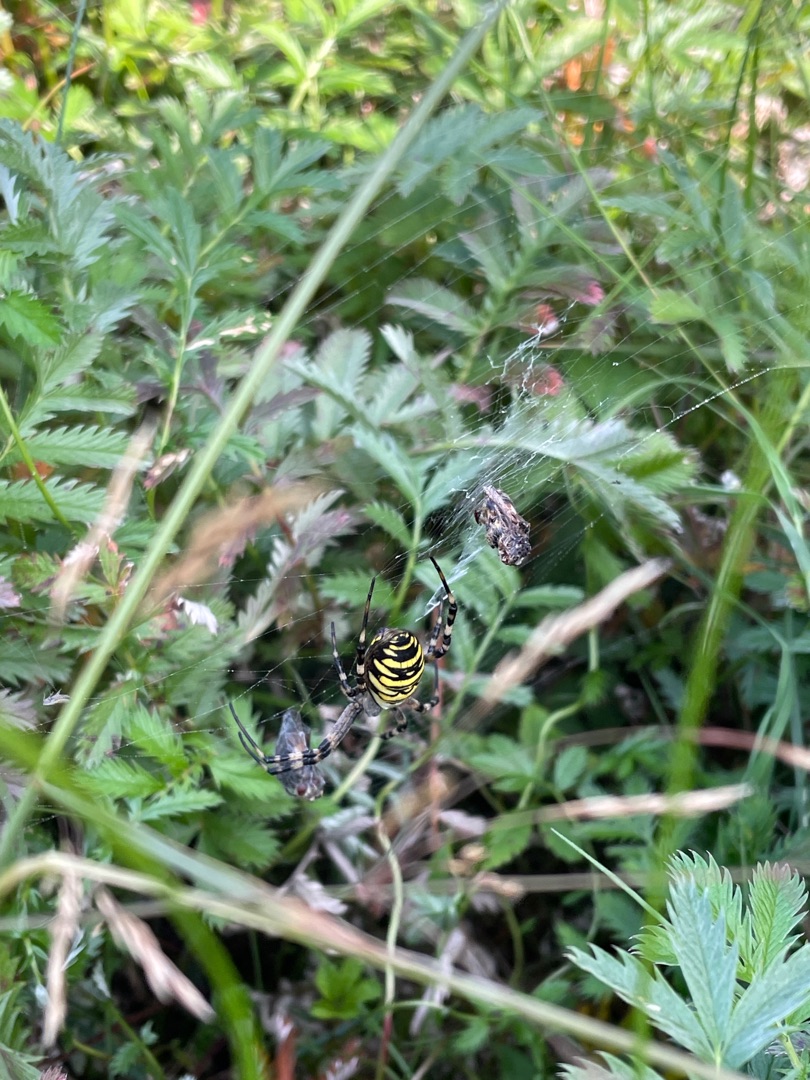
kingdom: Animalia
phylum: Arthropoda
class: Arachnida
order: Araneae
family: Araneidae
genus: Argiope
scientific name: Argiope bruennichi
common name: Hvepseedderkop
